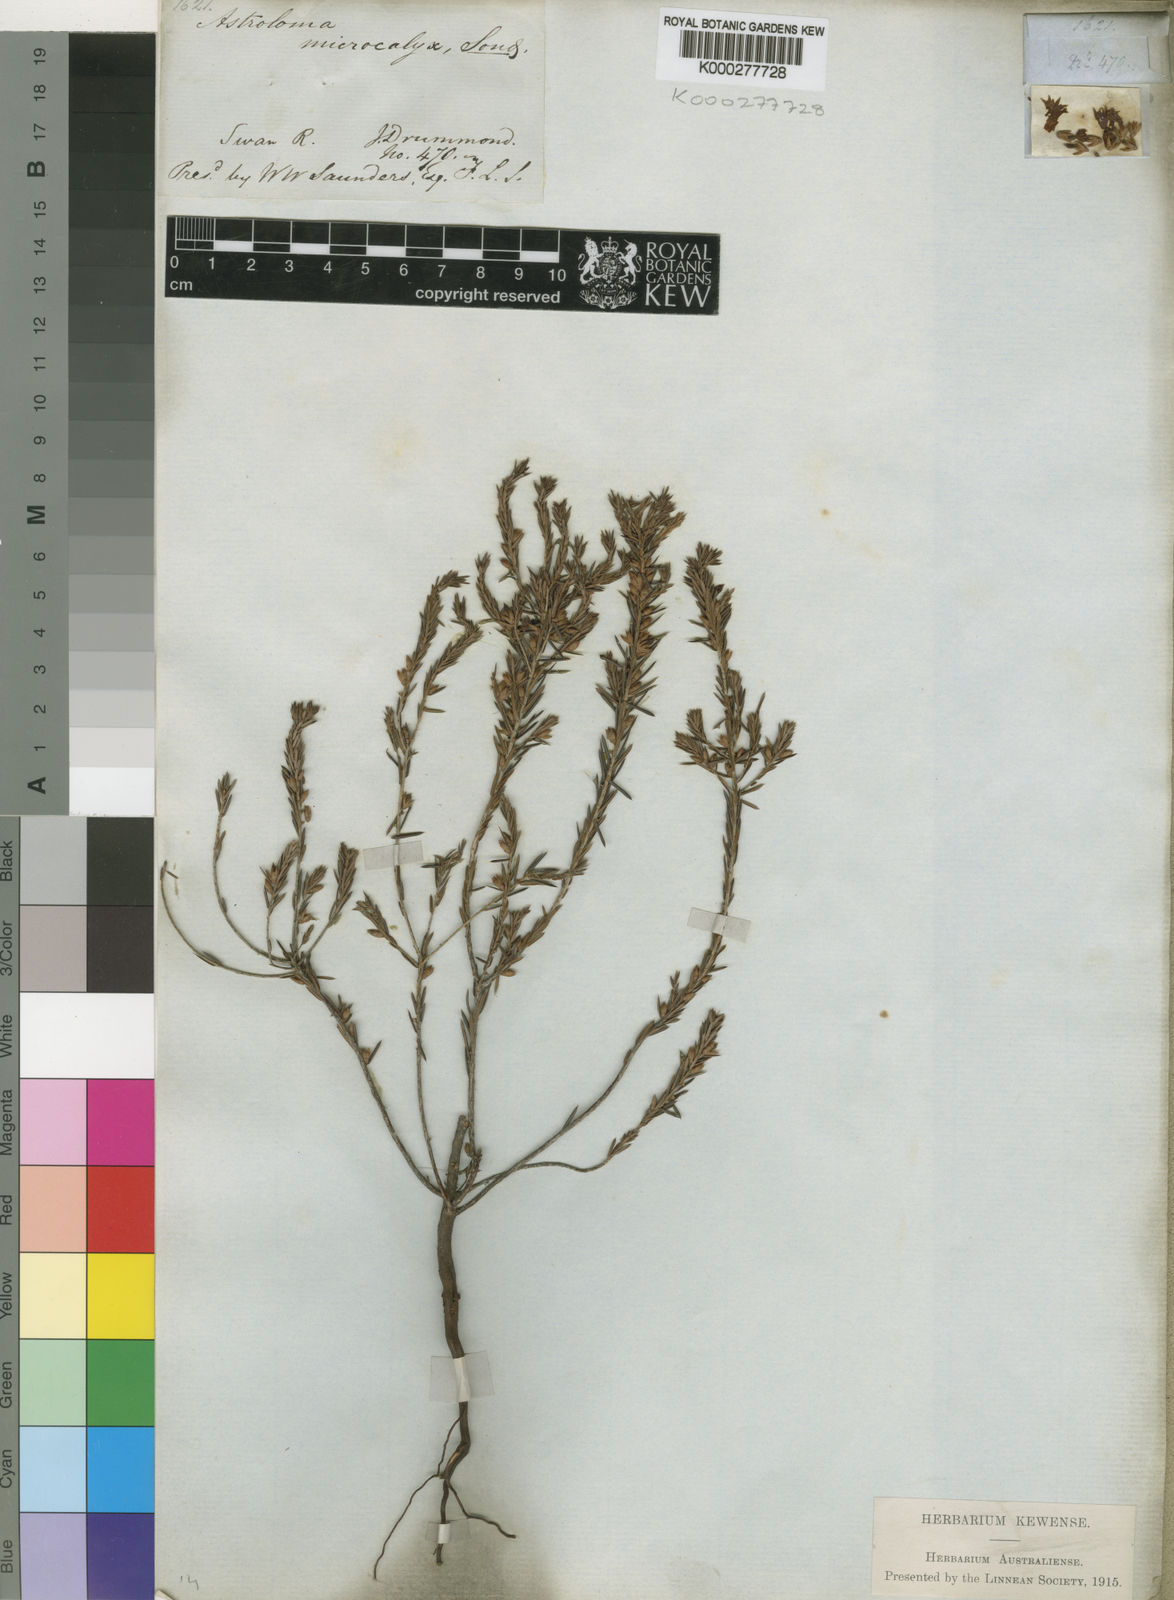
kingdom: Plantae
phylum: Tracheophyta
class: Magnoliopsida
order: Ericales
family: Ericaceae
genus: Styphelia
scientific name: Styphelia microcalyx
